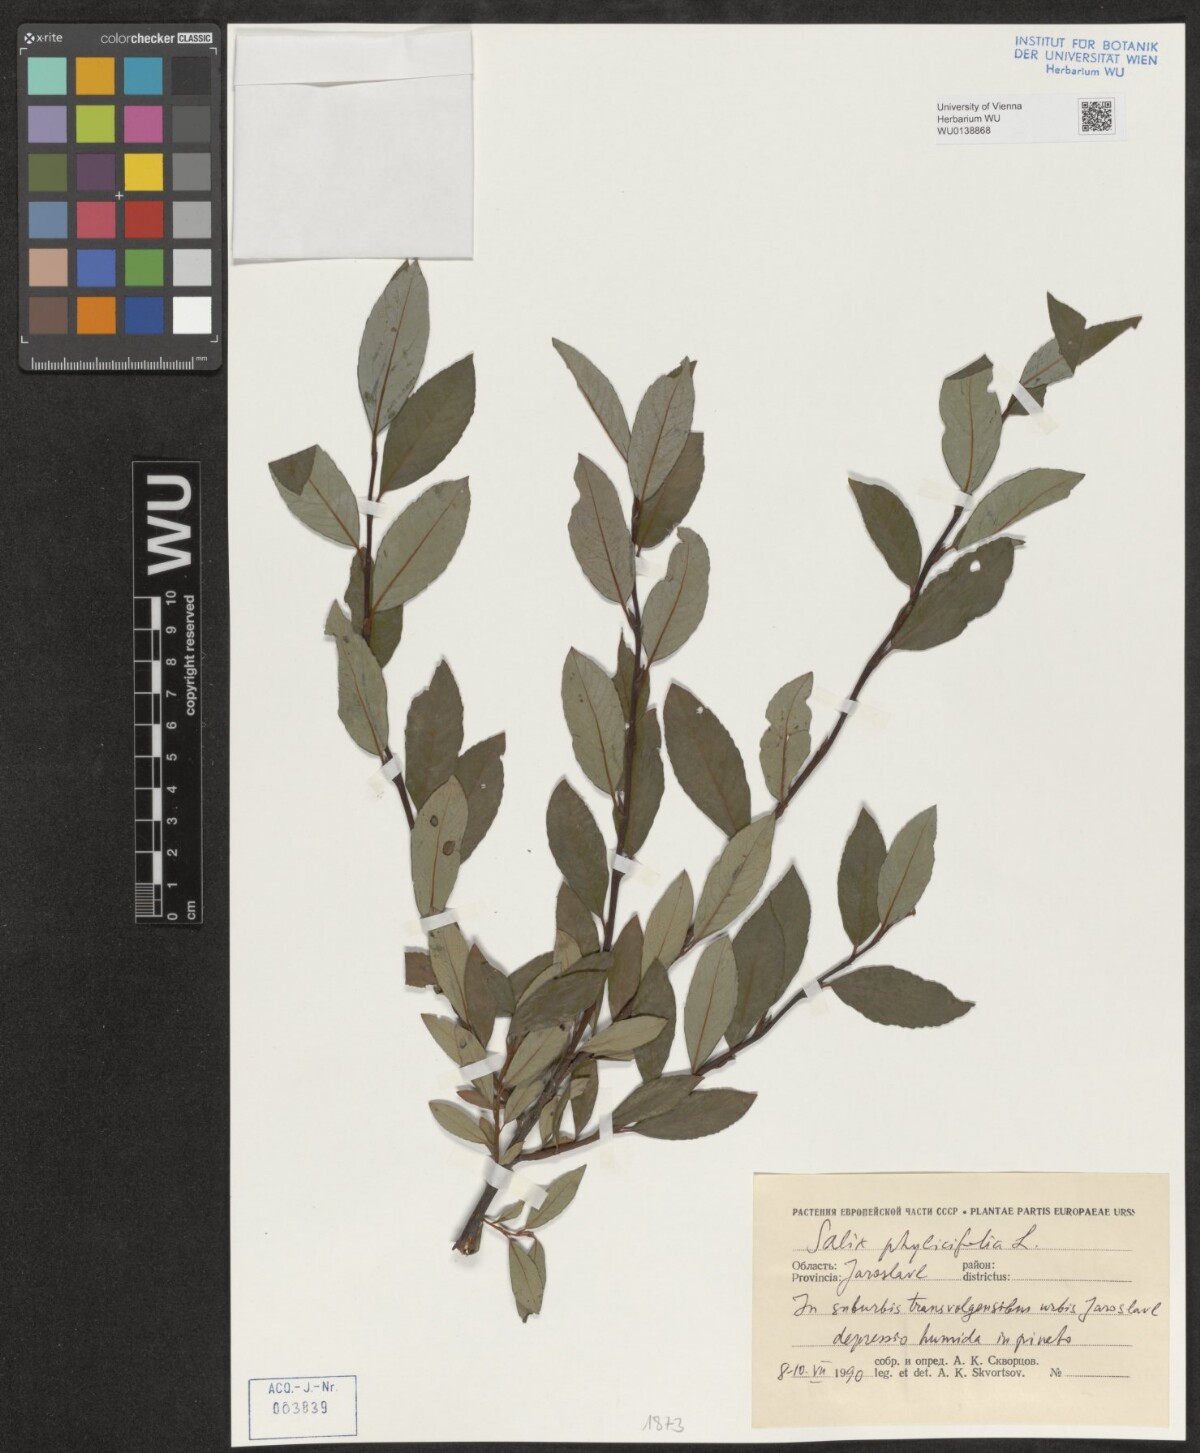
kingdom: Plantae
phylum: Tracheophyta
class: Magnoliopsida
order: Malpighiales
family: Salicaceae
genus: Salix
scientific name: Salix phylicifolia
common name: Tea-leaved willow
